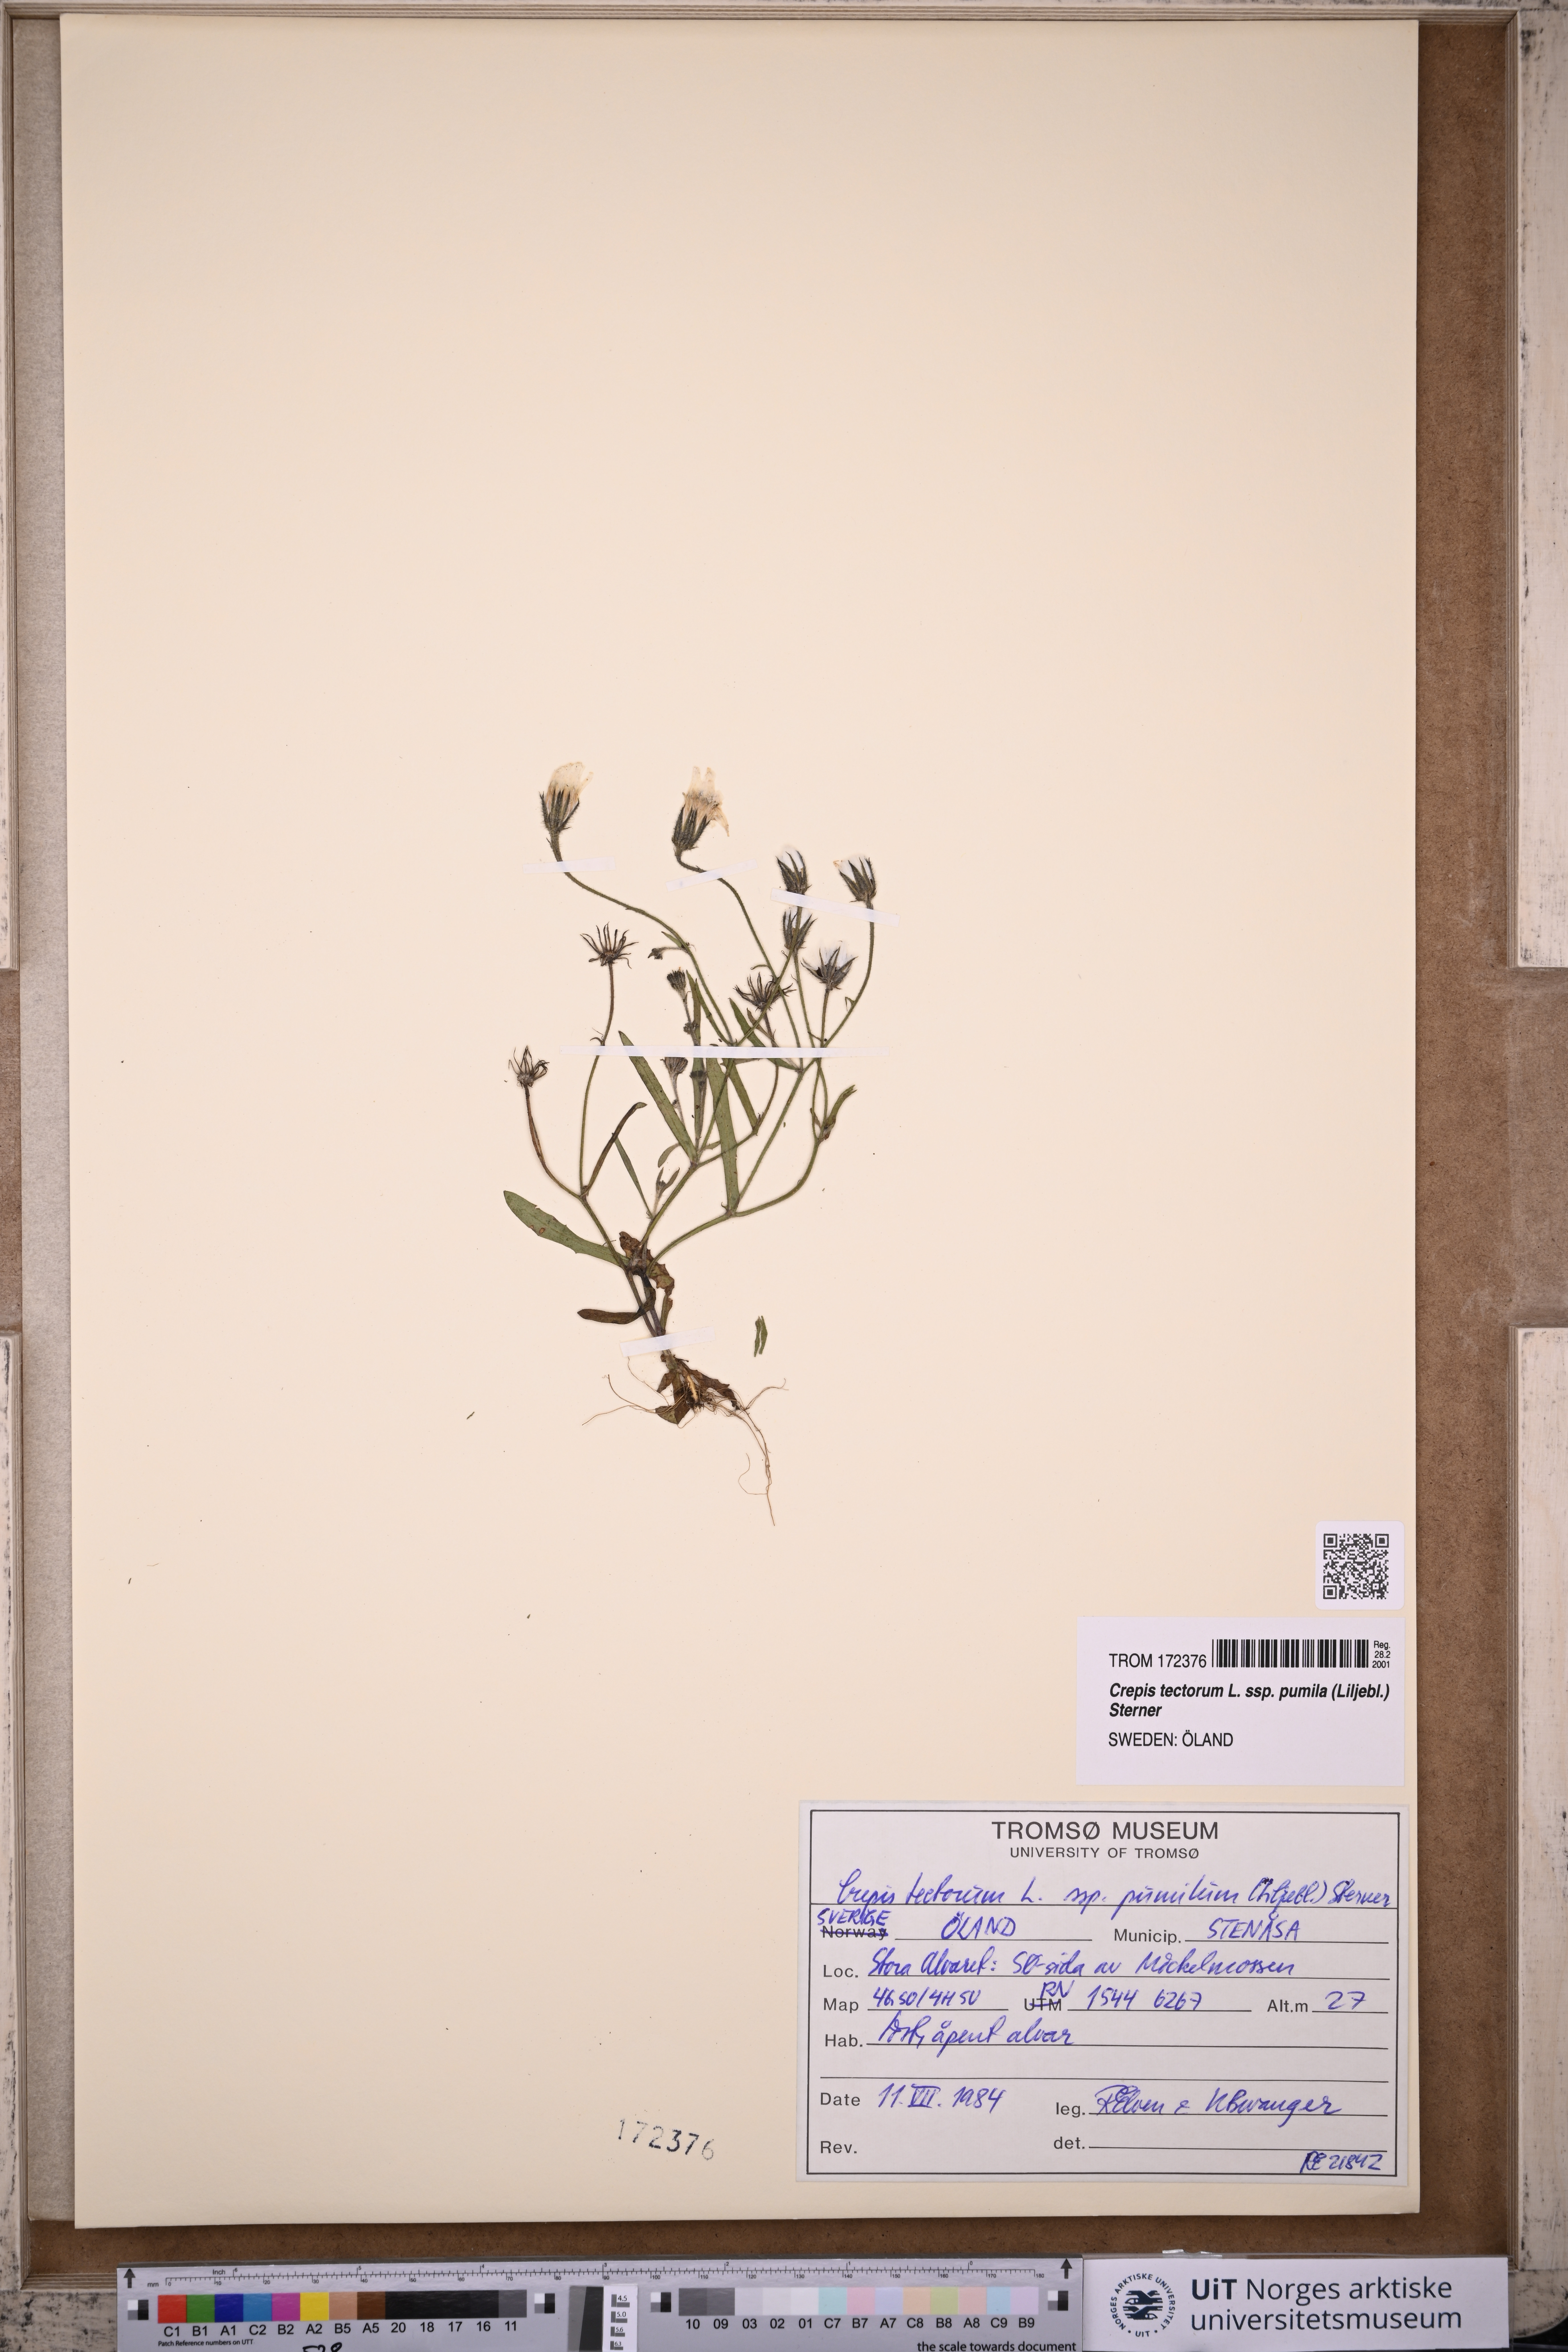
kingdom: Plantae
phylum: Tracheophyta
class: Magnoliopsida
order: Asterales
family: Asteraceae
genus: Crepis
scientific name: Crepis foliosa
